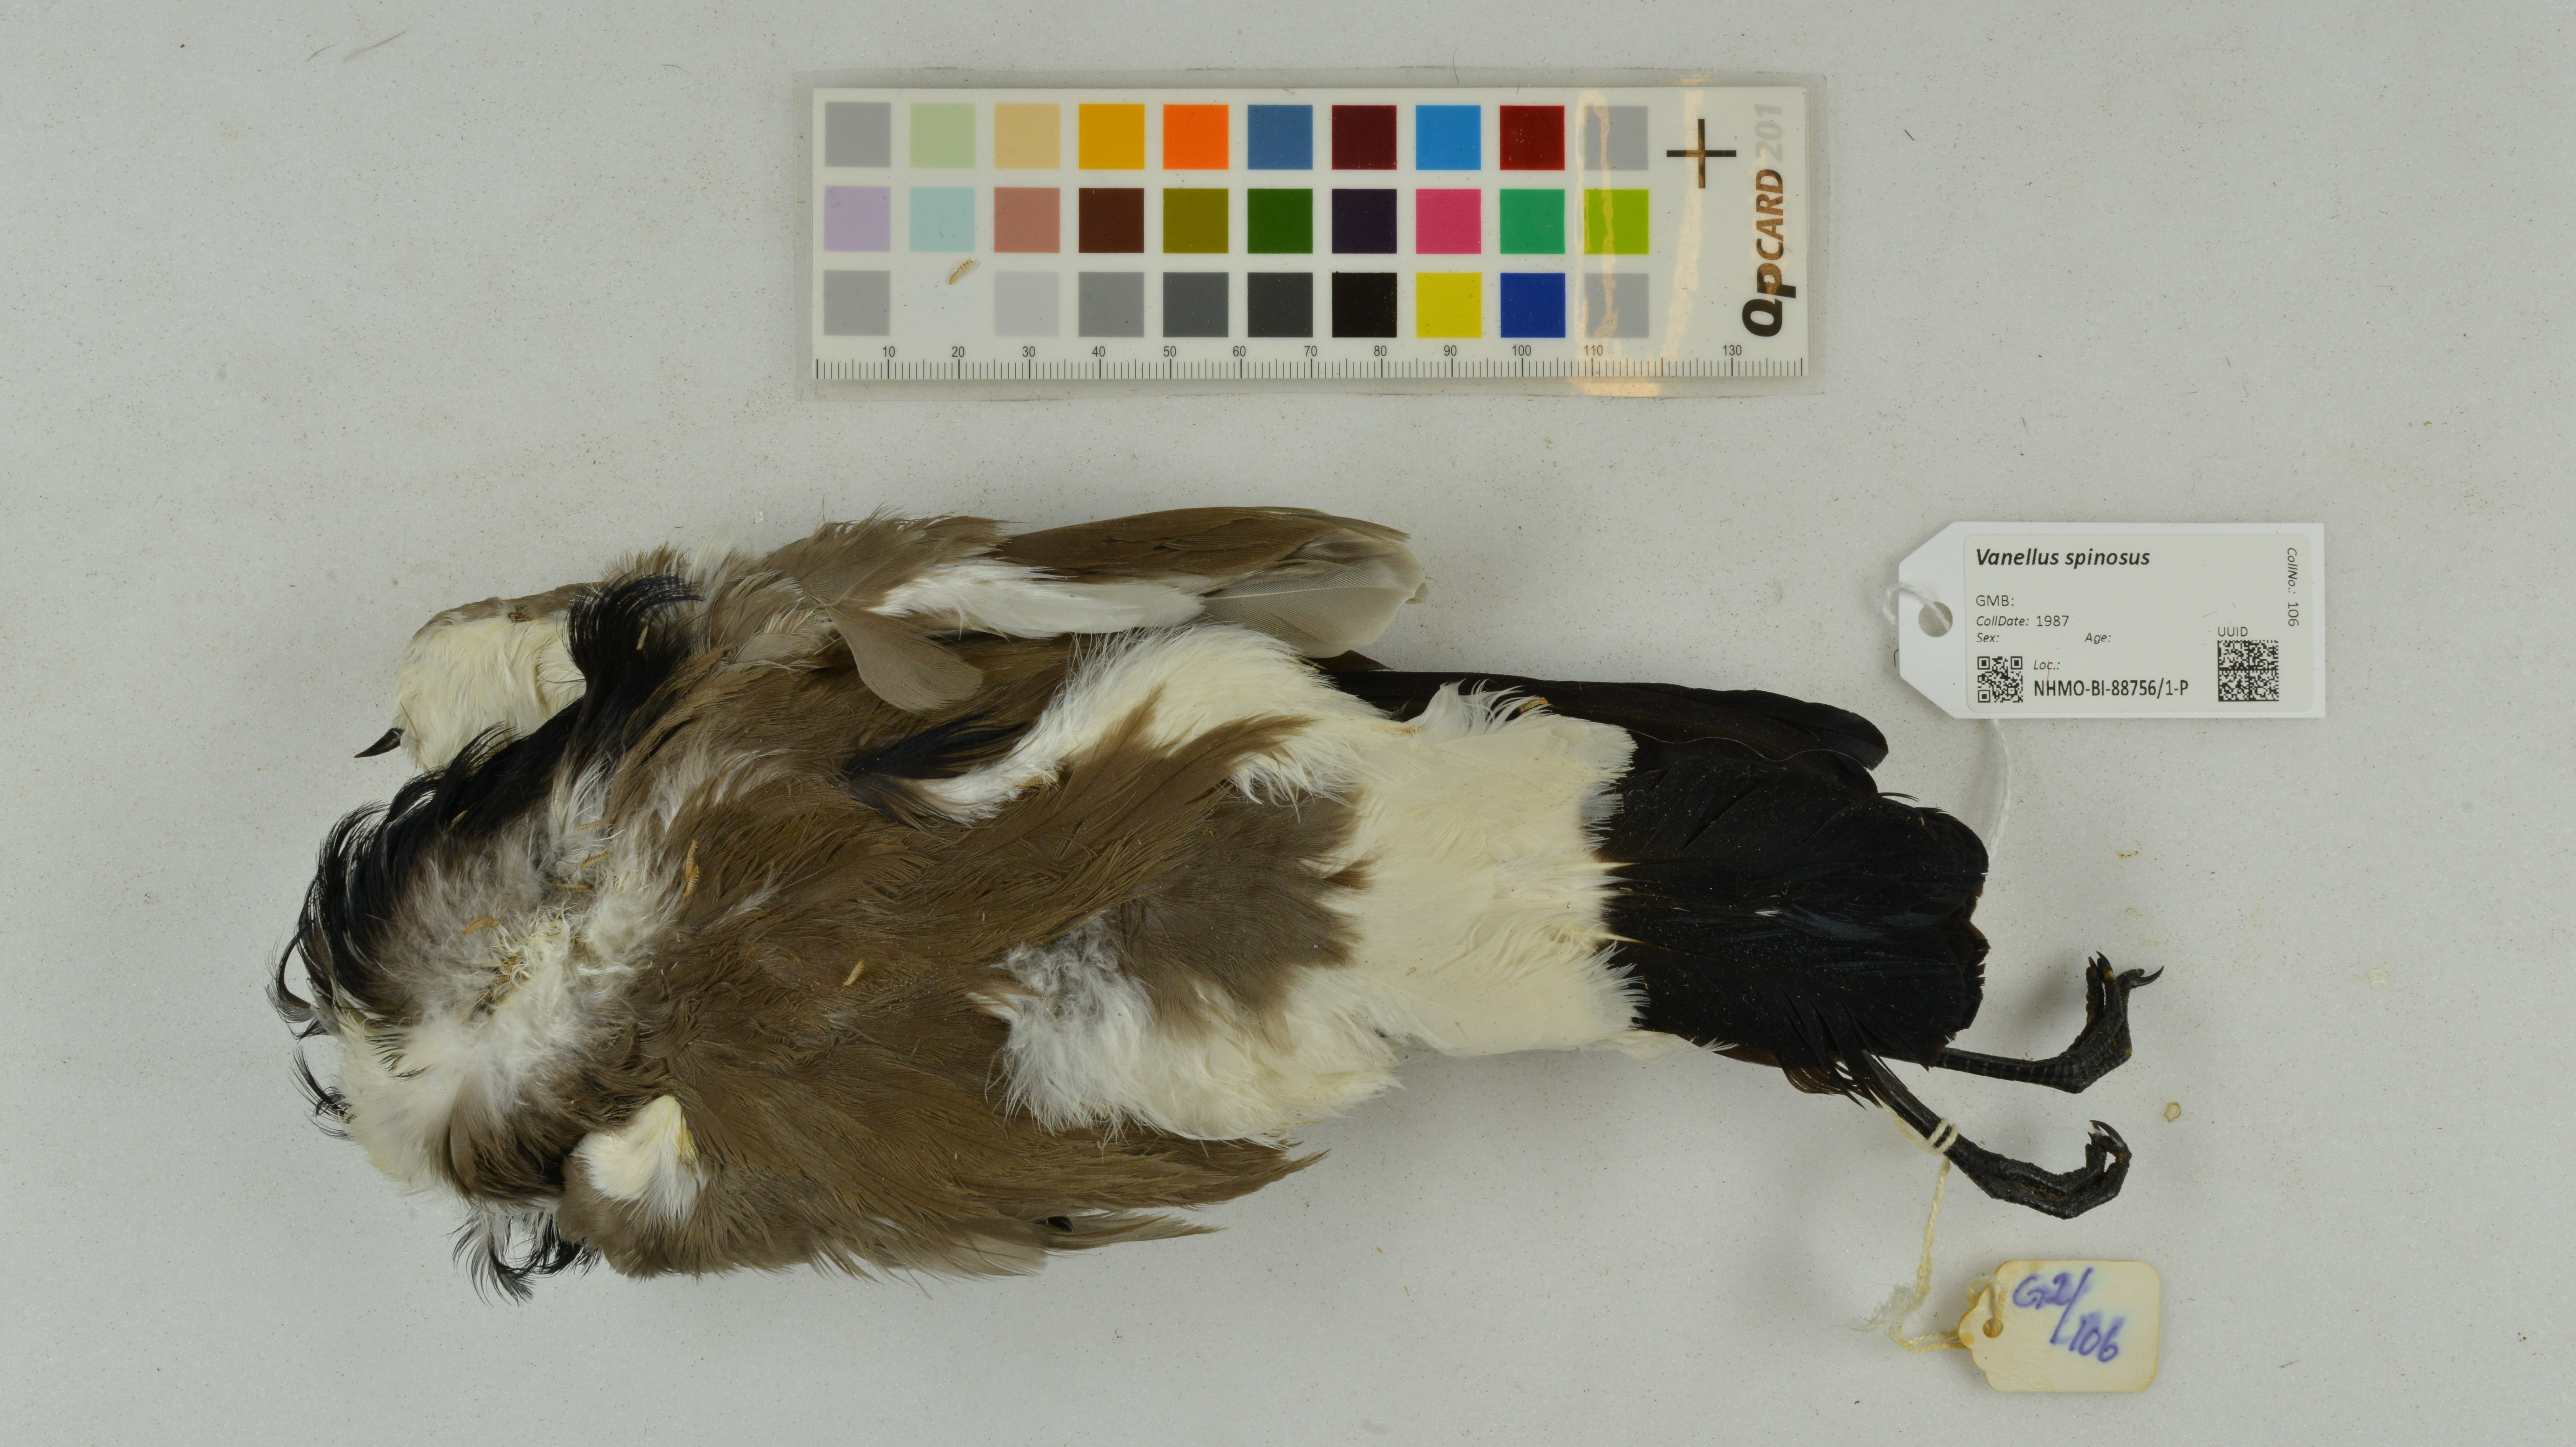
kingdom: Animalia
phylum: Chordata
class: Aves
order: Charadriiformes
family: Charadriidae
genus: Vanellus
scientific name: Vanellus spinosus
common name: Spur-winged lapwing
